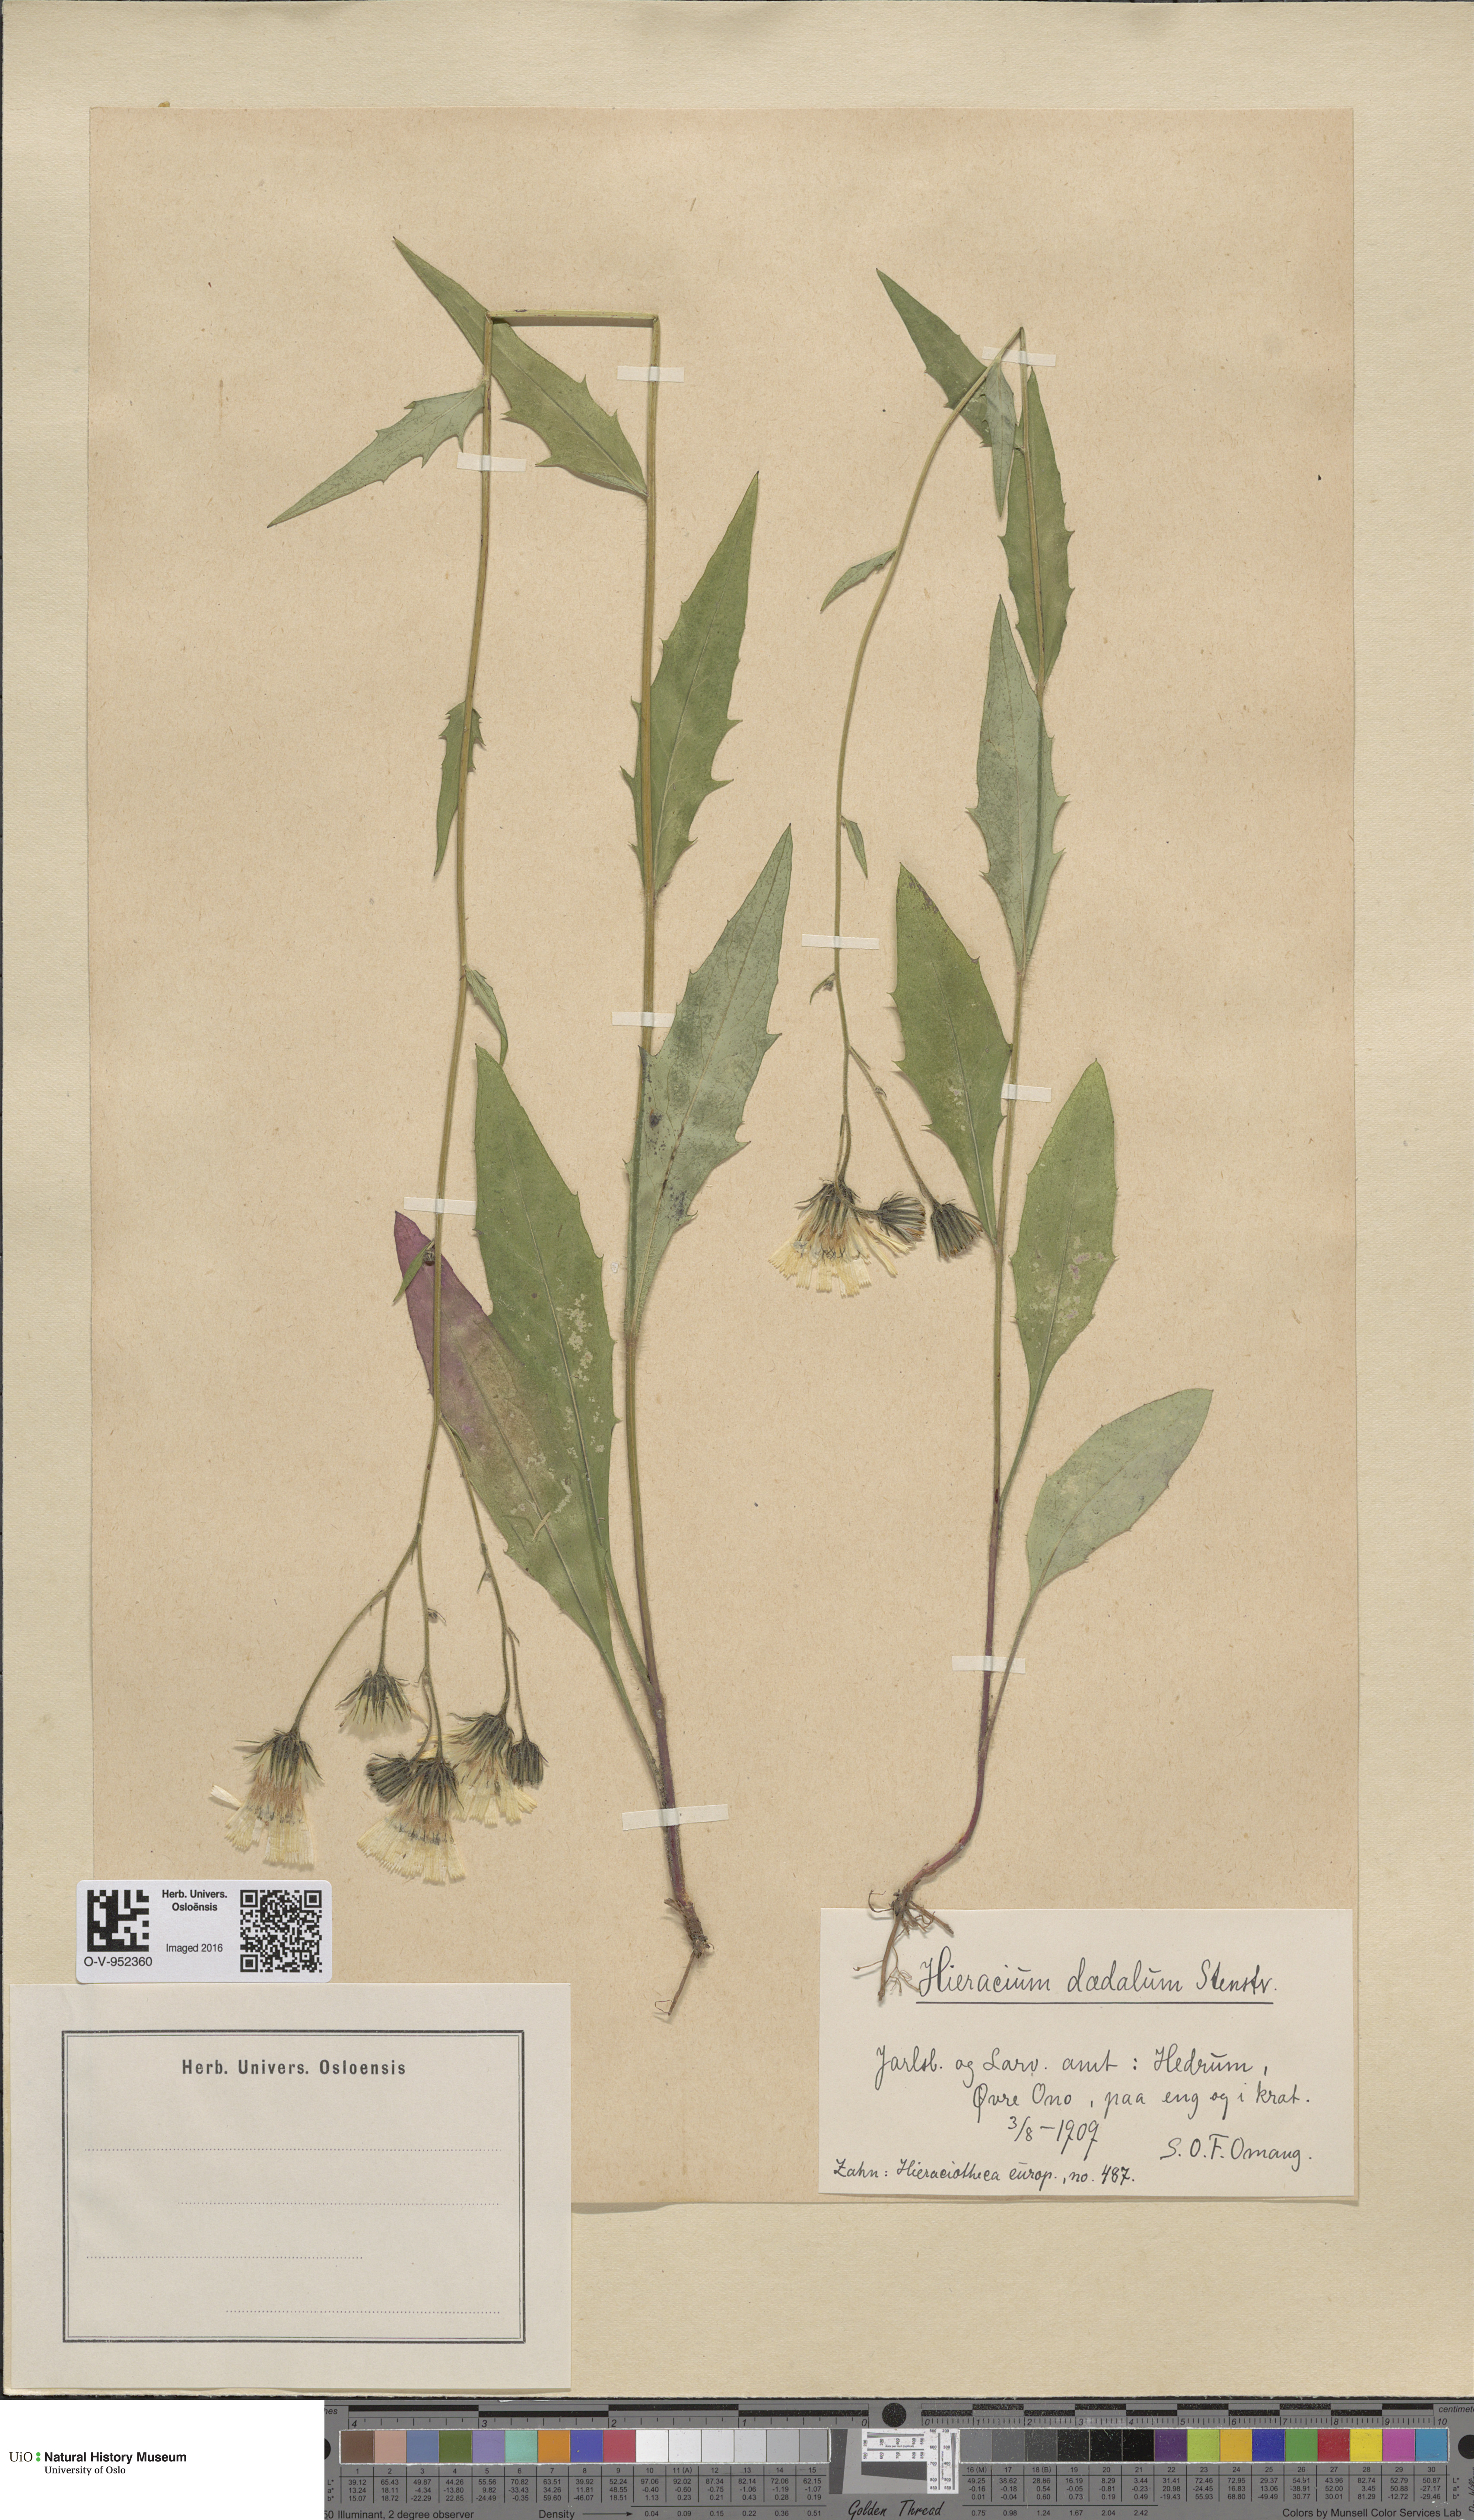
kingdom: Plantae
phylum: Tracheophyta
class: Magnoliopsida
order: Asterales
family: Asteraceae
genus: Hieracium
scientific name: Hieracium
